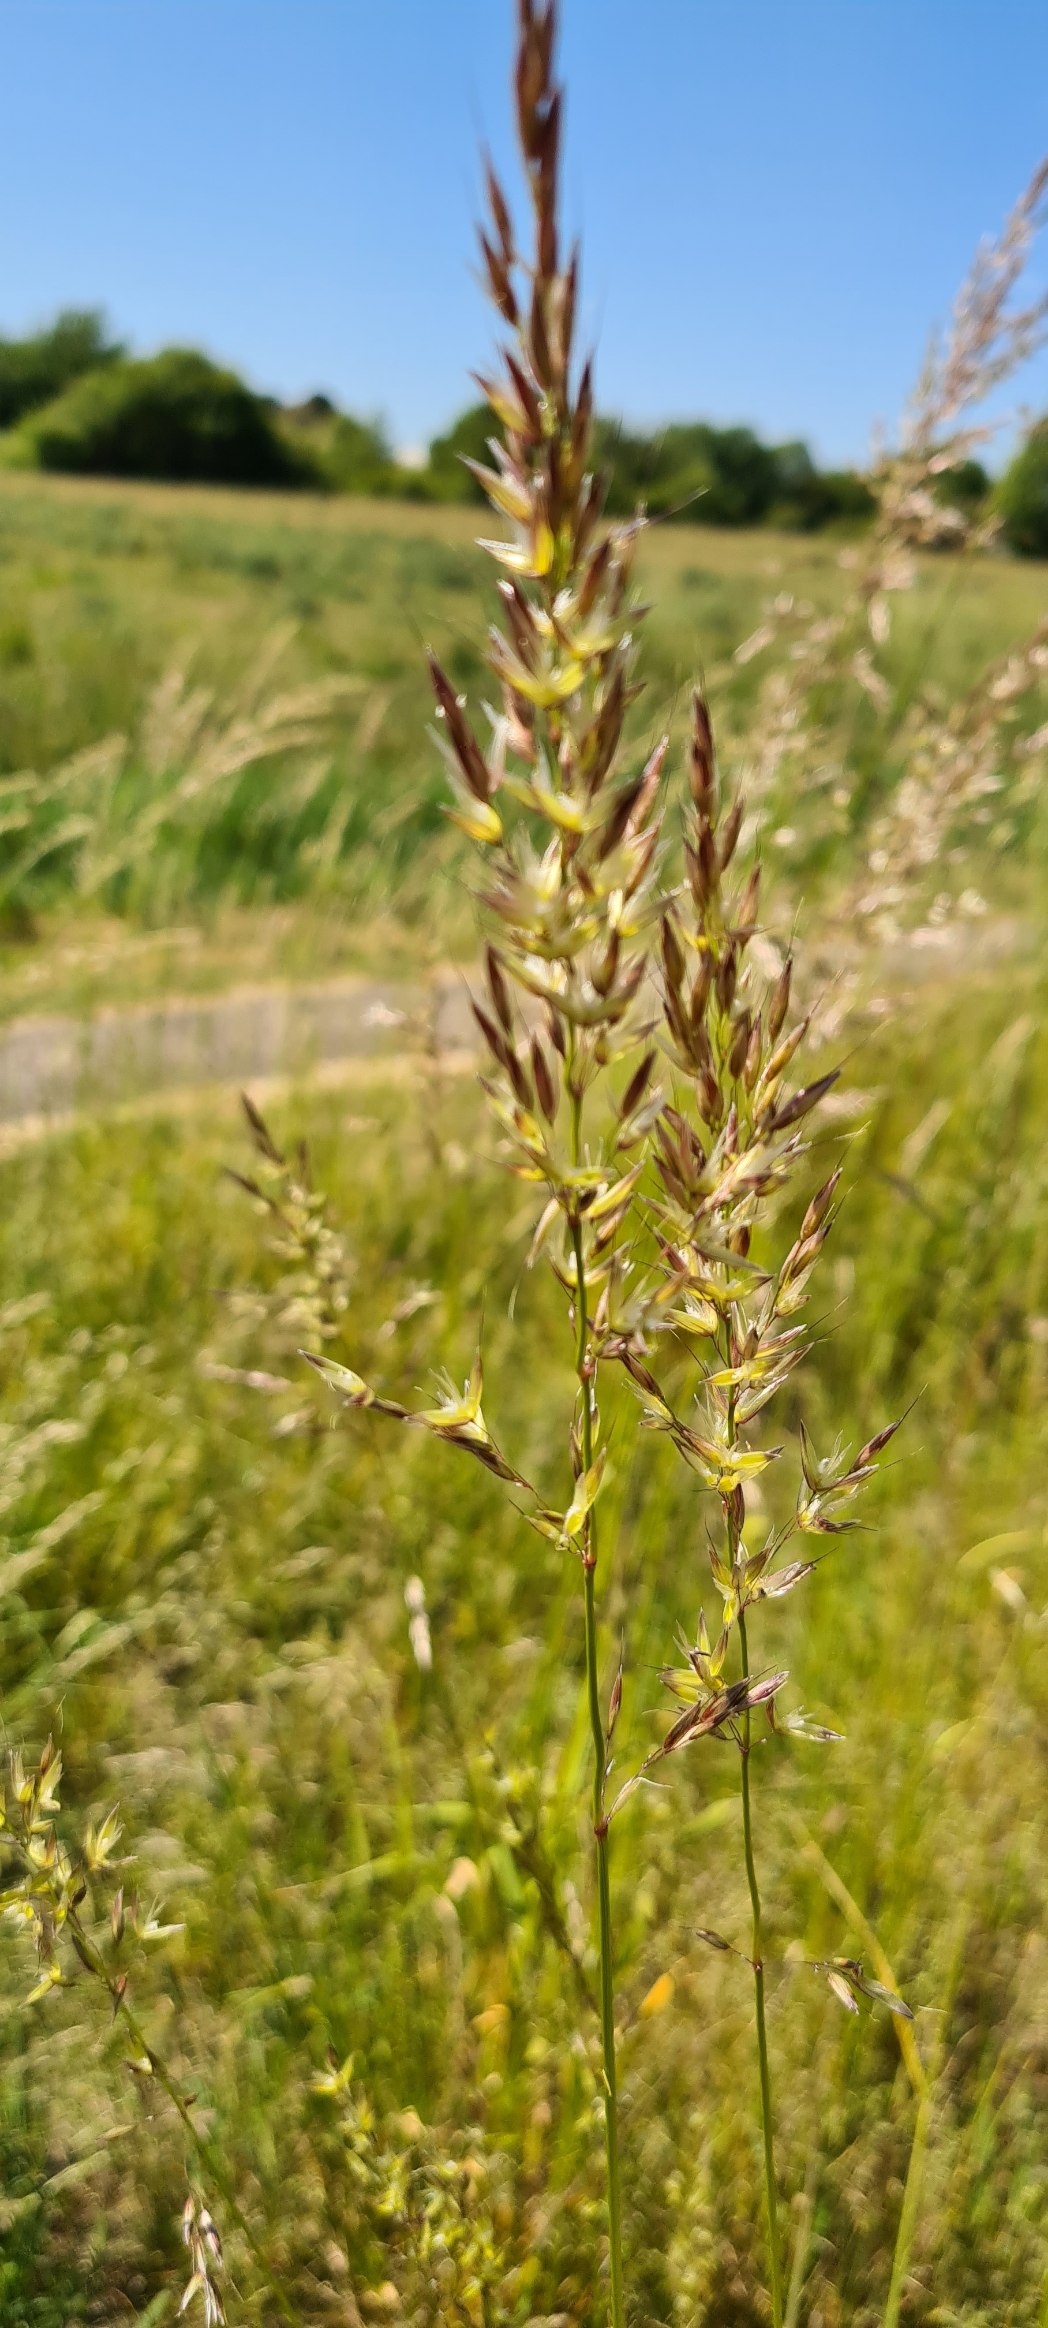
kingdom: Plantae
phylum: Tracheophyta
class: Liliopsida
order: Poales
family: Poaceae
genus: Arrhenatherum
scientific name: Arrhenatherum elatius
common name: Draphavre
